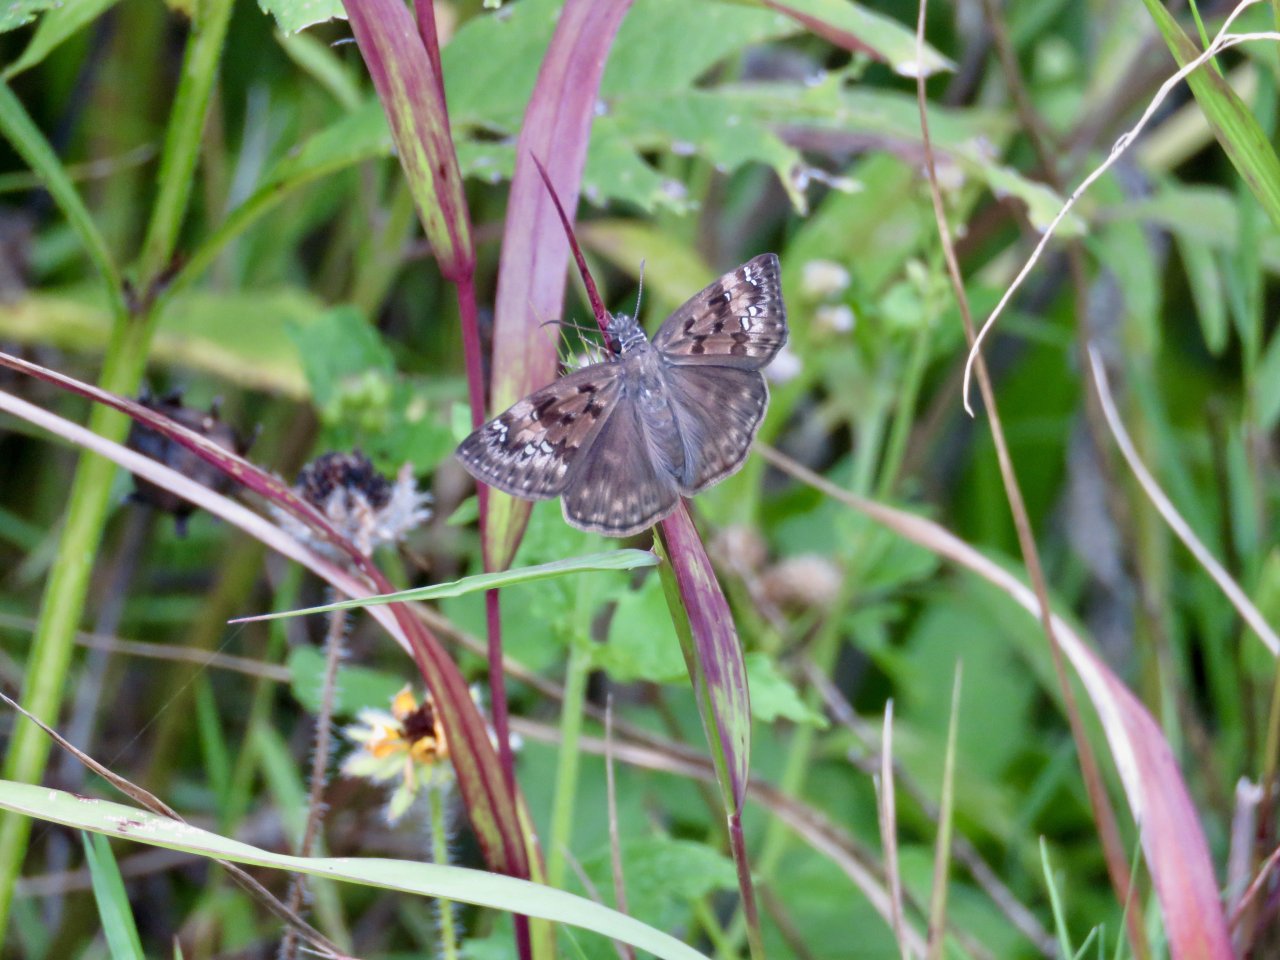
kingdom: Animalia
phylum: Arthropoda
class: Insecta
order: Lepidoptera
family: Hesperiidae
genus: Gesta
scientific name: Gesta
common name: Horace's Duskywing
